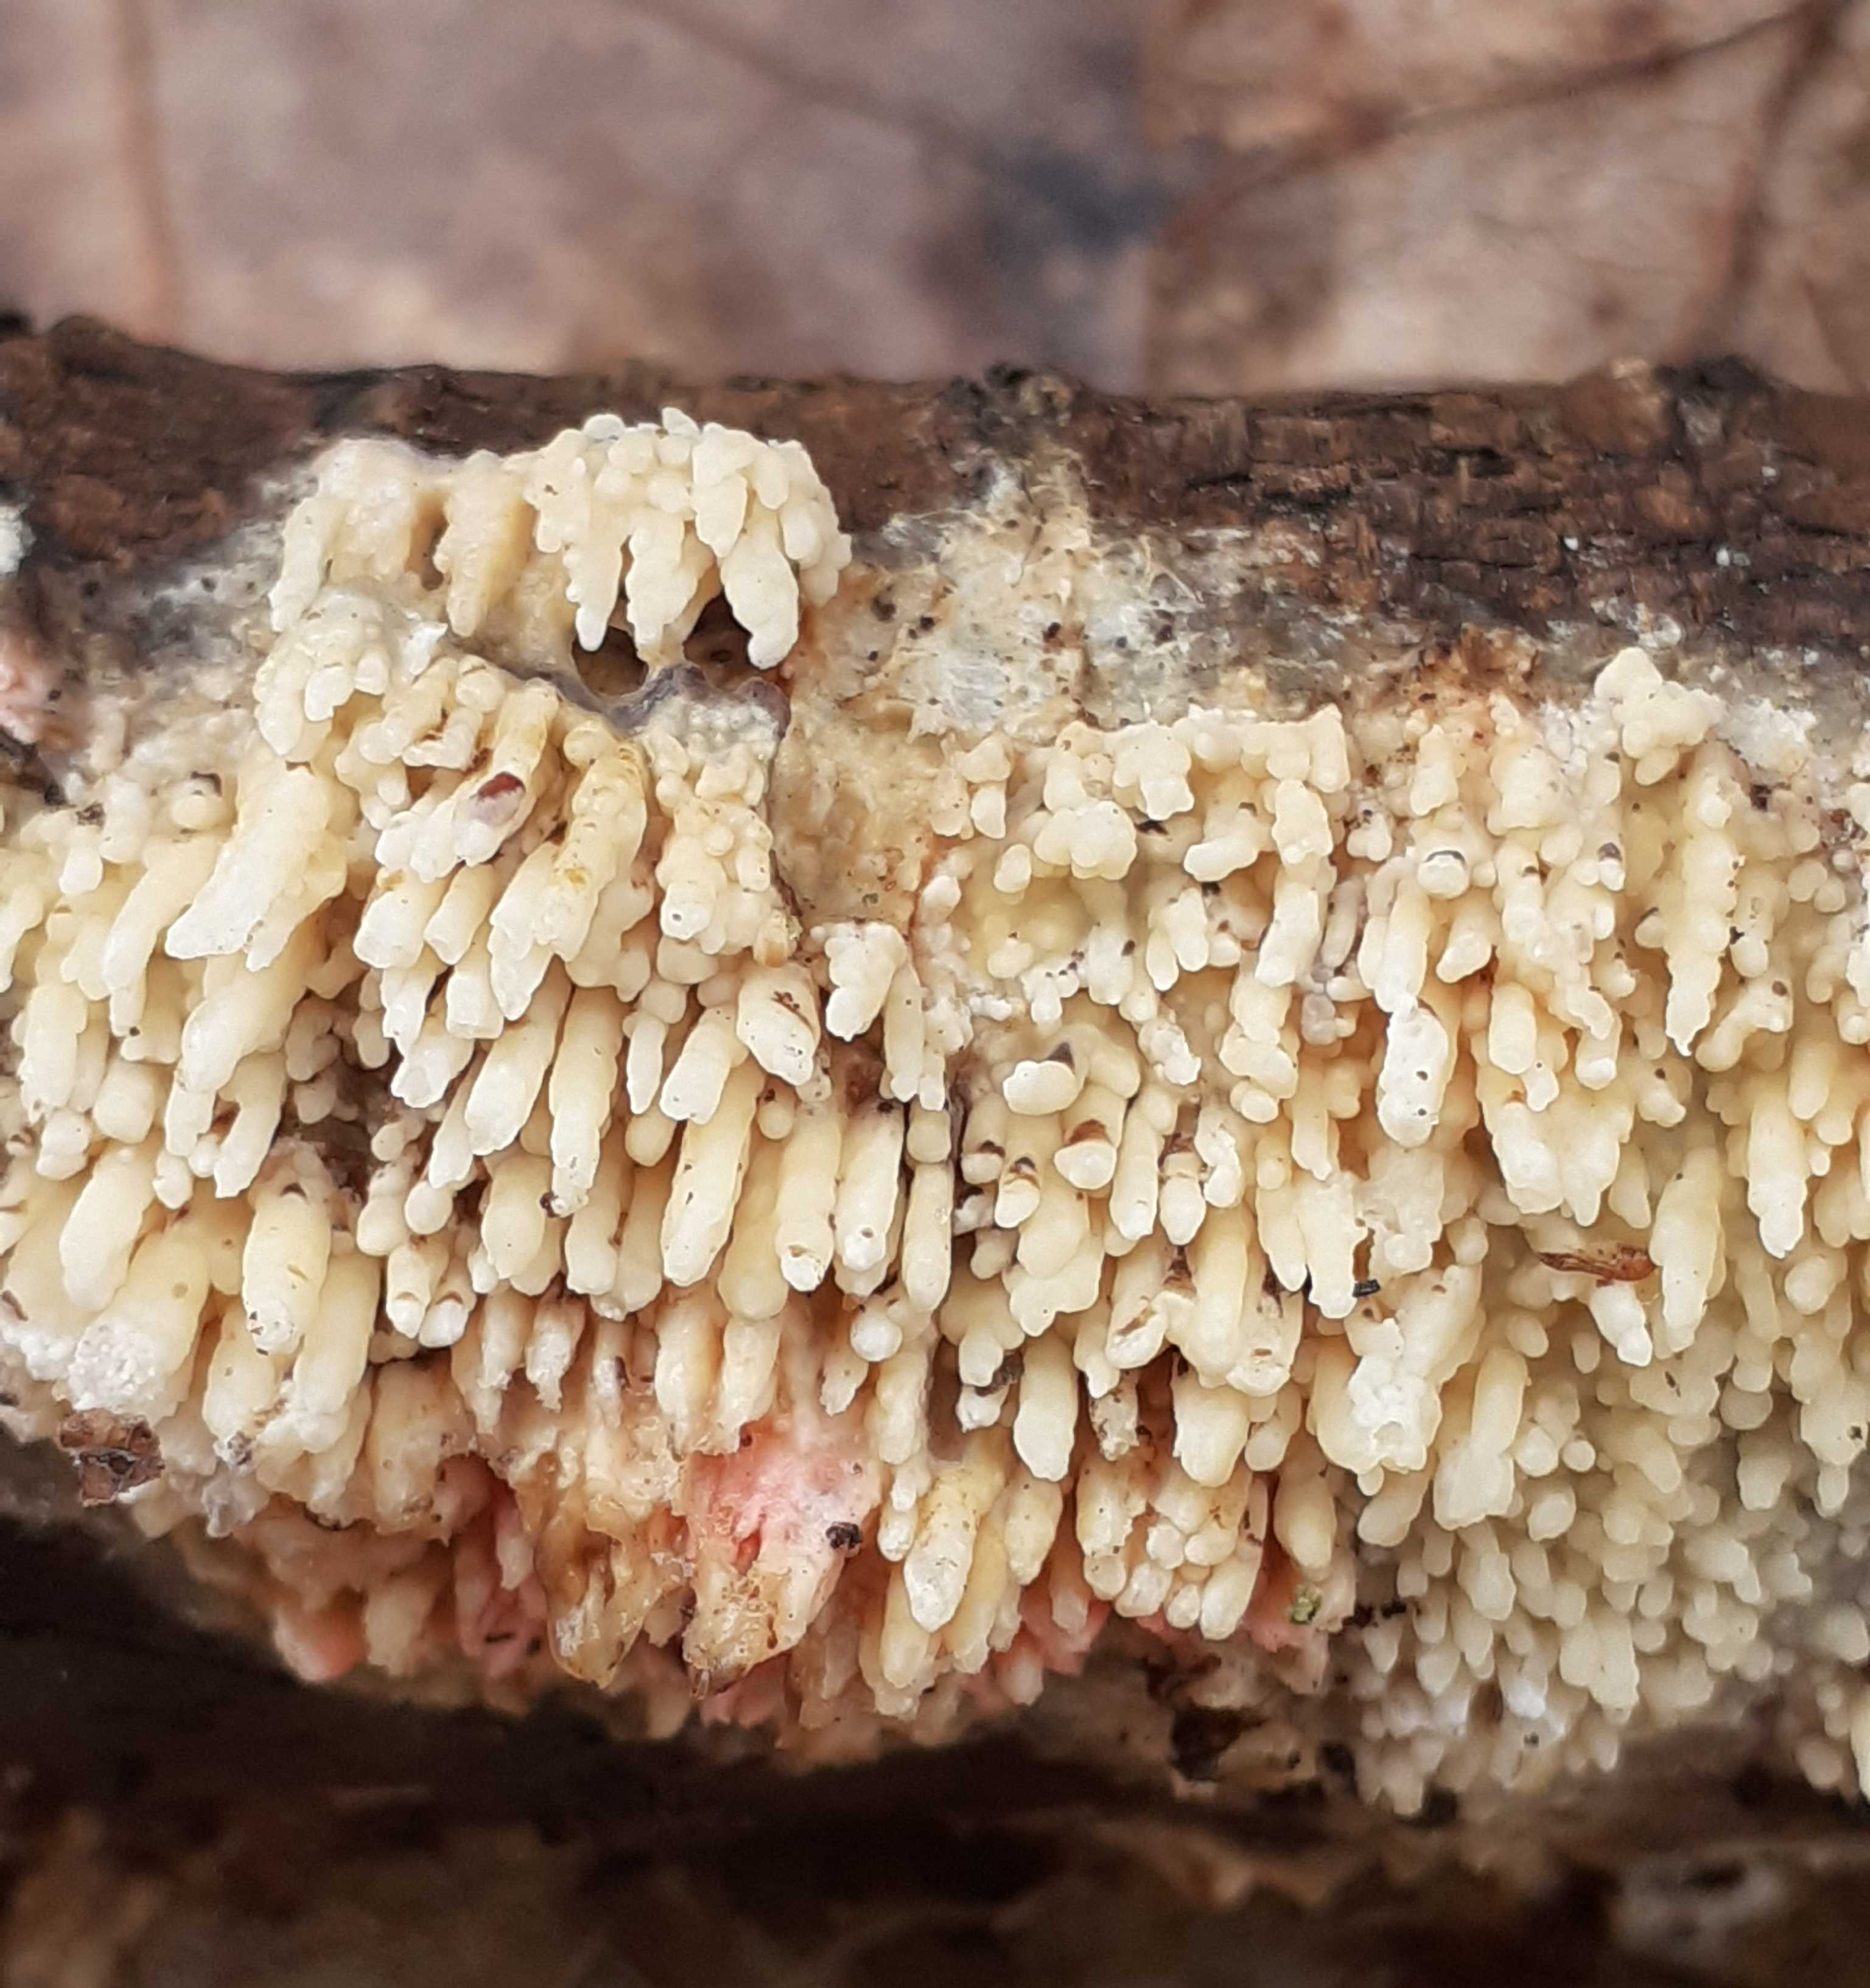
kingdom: Fungi
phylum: Basidiomycota
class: Agaricomycetes
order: Hymenochaetales
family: Schizoporaceae
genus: Xylodon
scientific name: Xylodon radula
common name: grovtandet kalkskind
